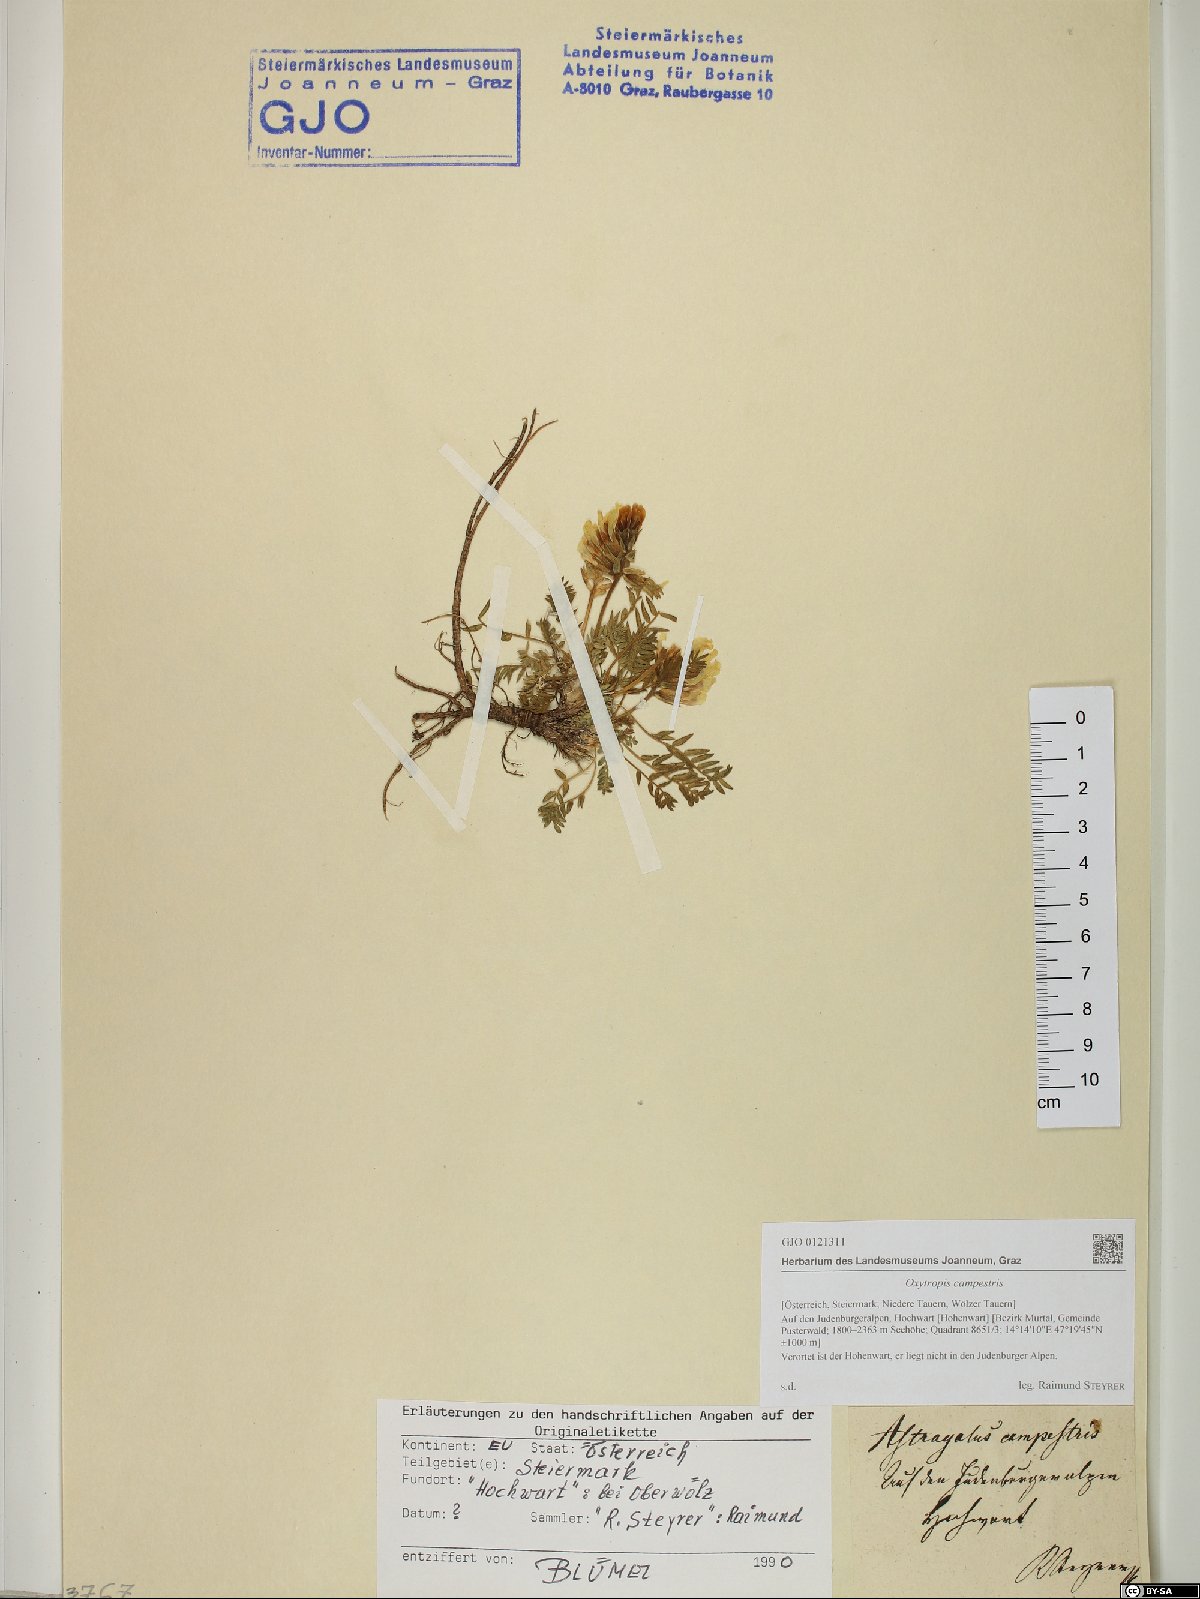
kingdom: Plantae
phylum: Tracheophyta
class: Magnoliopsida
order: Fabales
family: Fabaceae
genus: Oxytropis
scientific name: Oxytropis campestris
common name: Field locoweed
